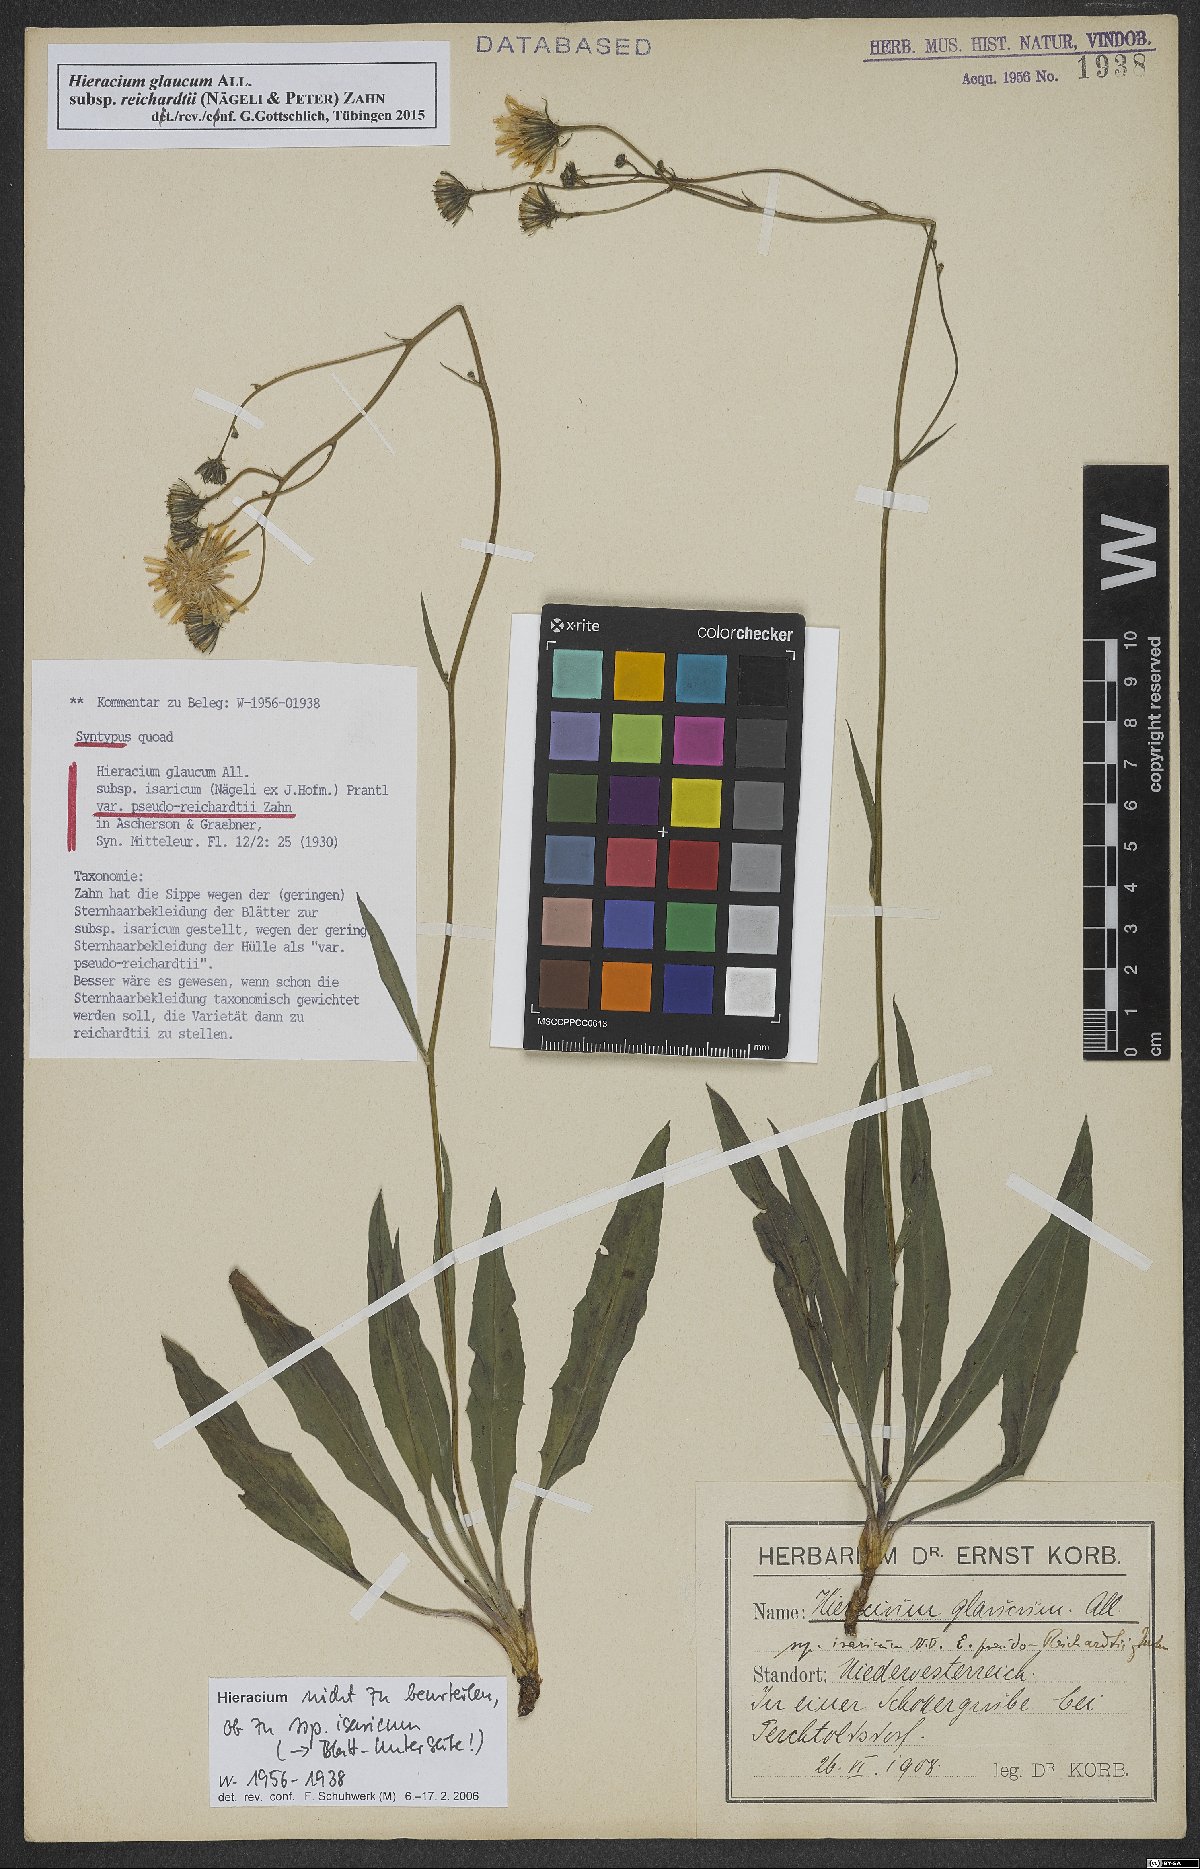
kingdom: Plantae
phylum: Tracheophyta
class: Magnoliopsida
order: Asterales
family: Asteraceae
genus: Hieracium
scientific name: Hieracium glaucum
